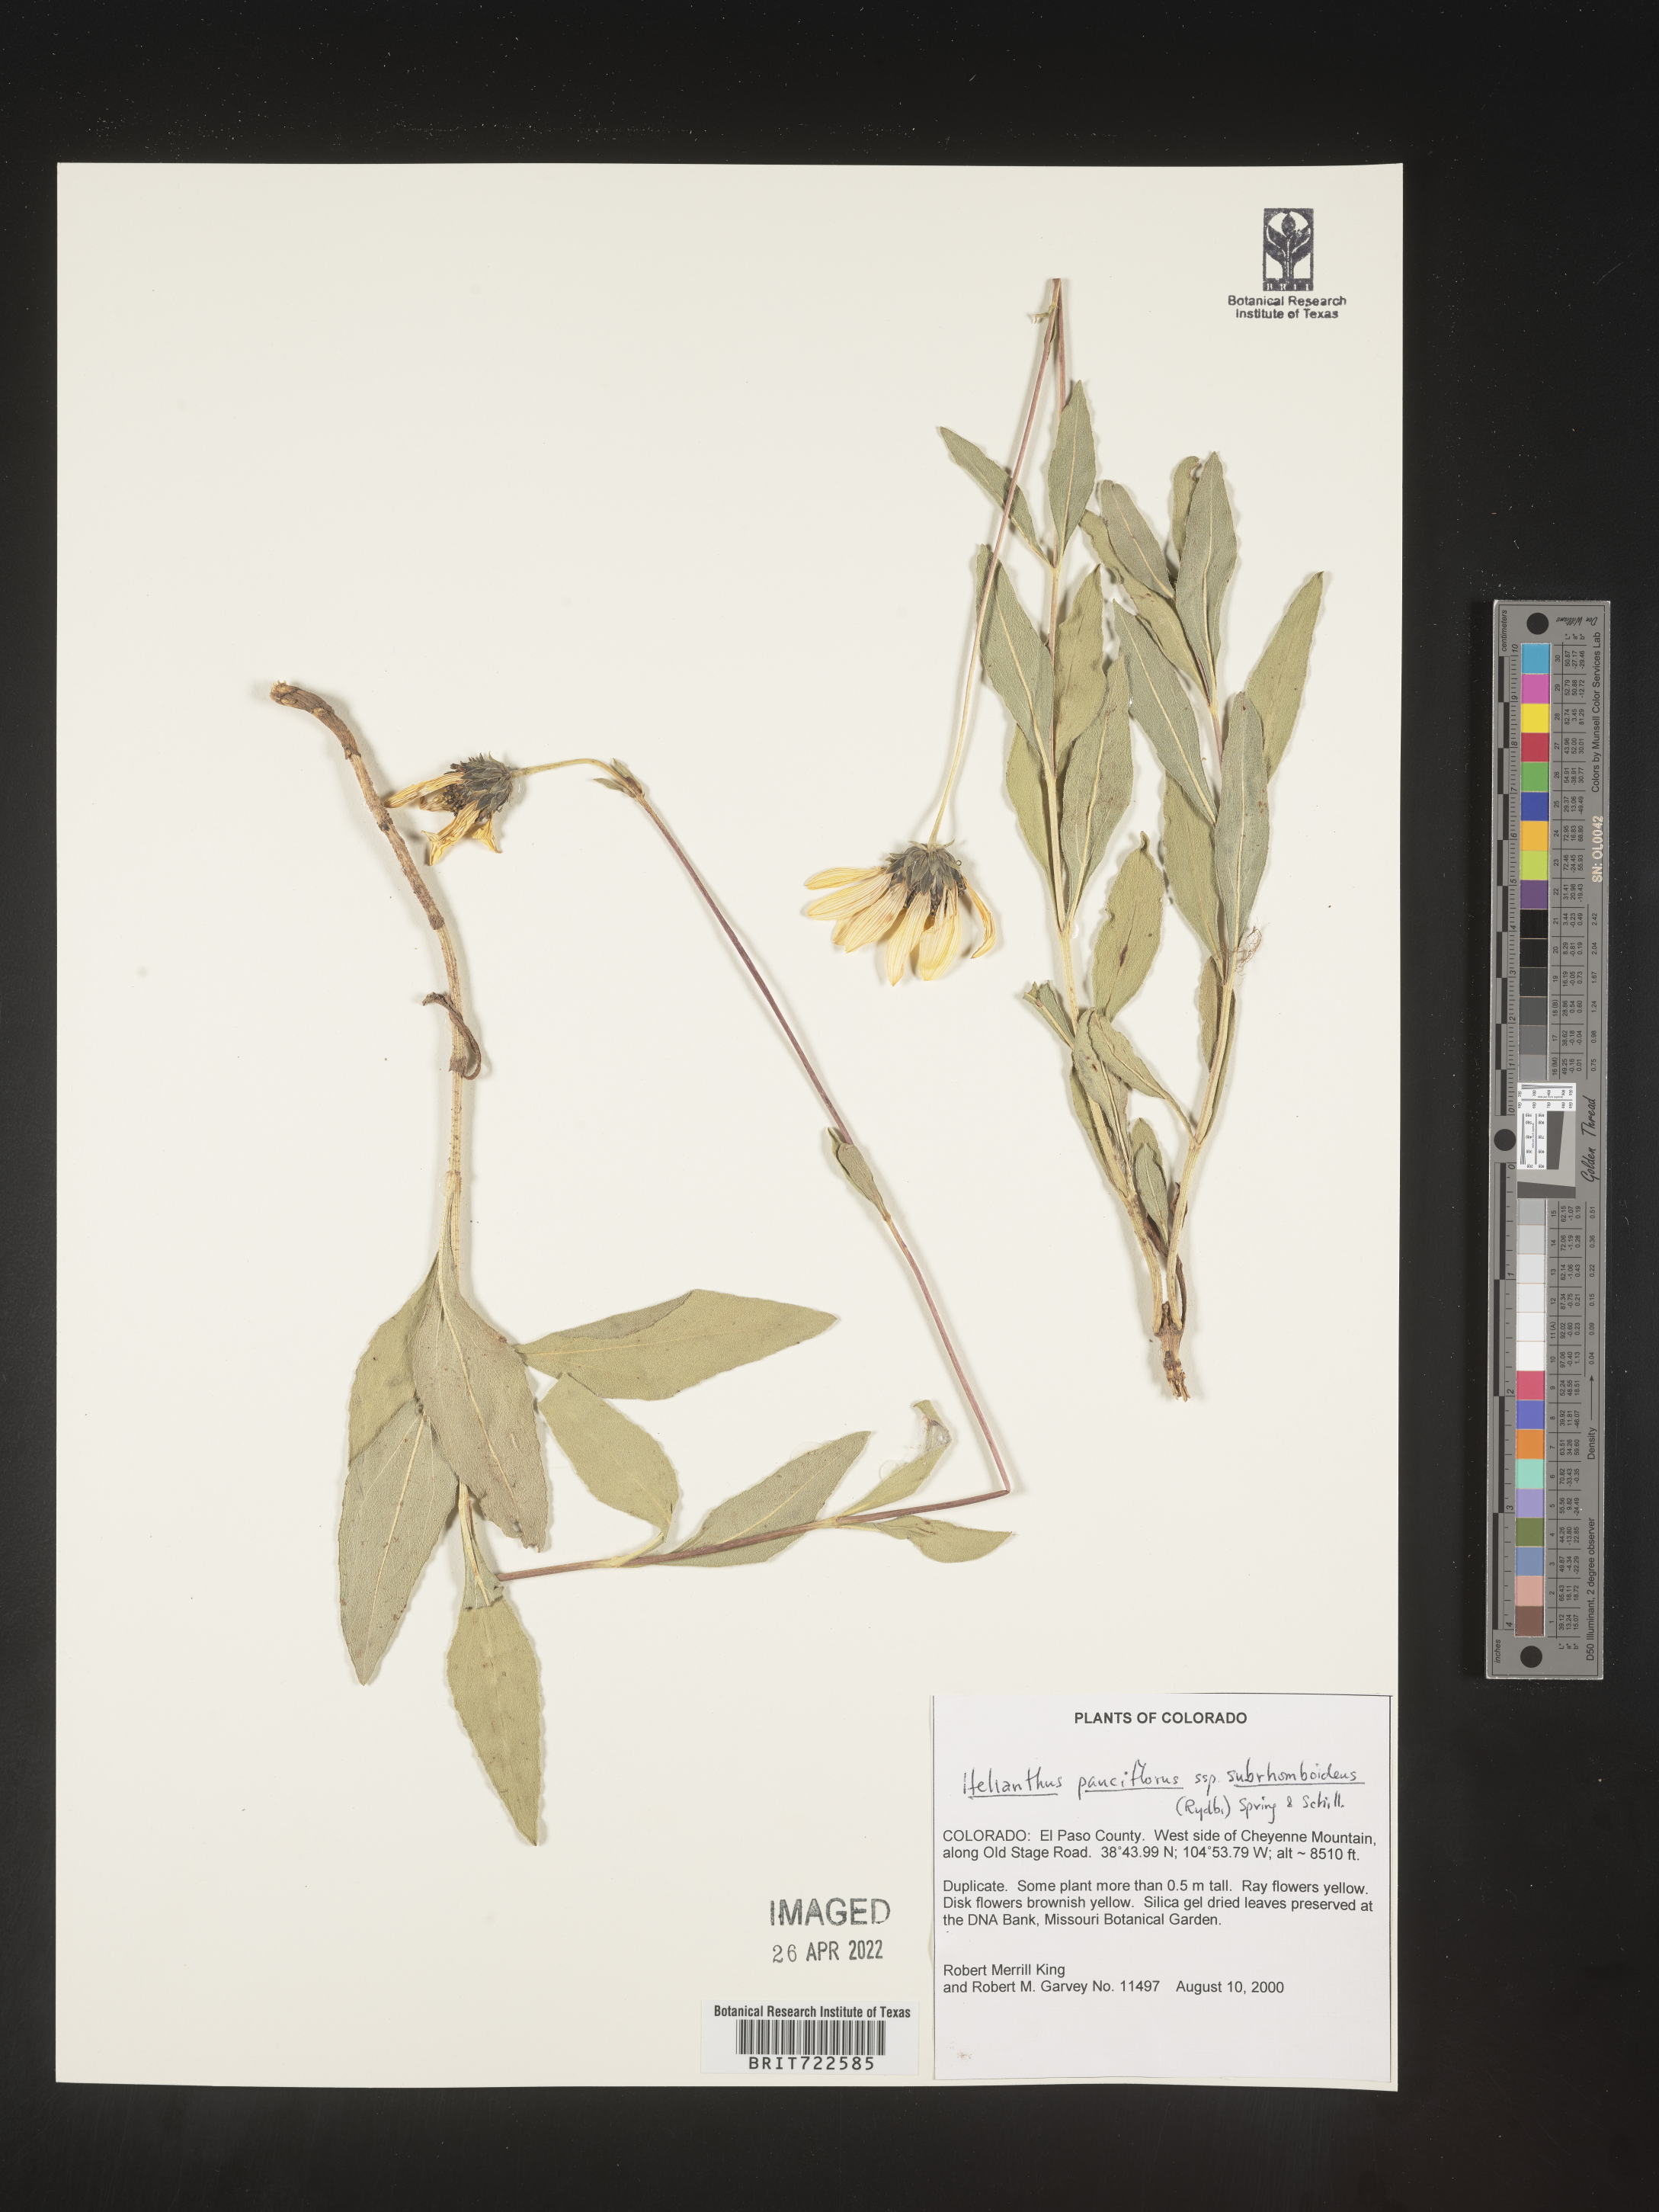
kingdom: Plantae
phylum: Tracheophyta
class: Magnoliopsida
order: Asterales
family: Asteraceae
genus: Helianthus
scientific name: Helianthus pauciflorus
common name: Stiff sunflower
